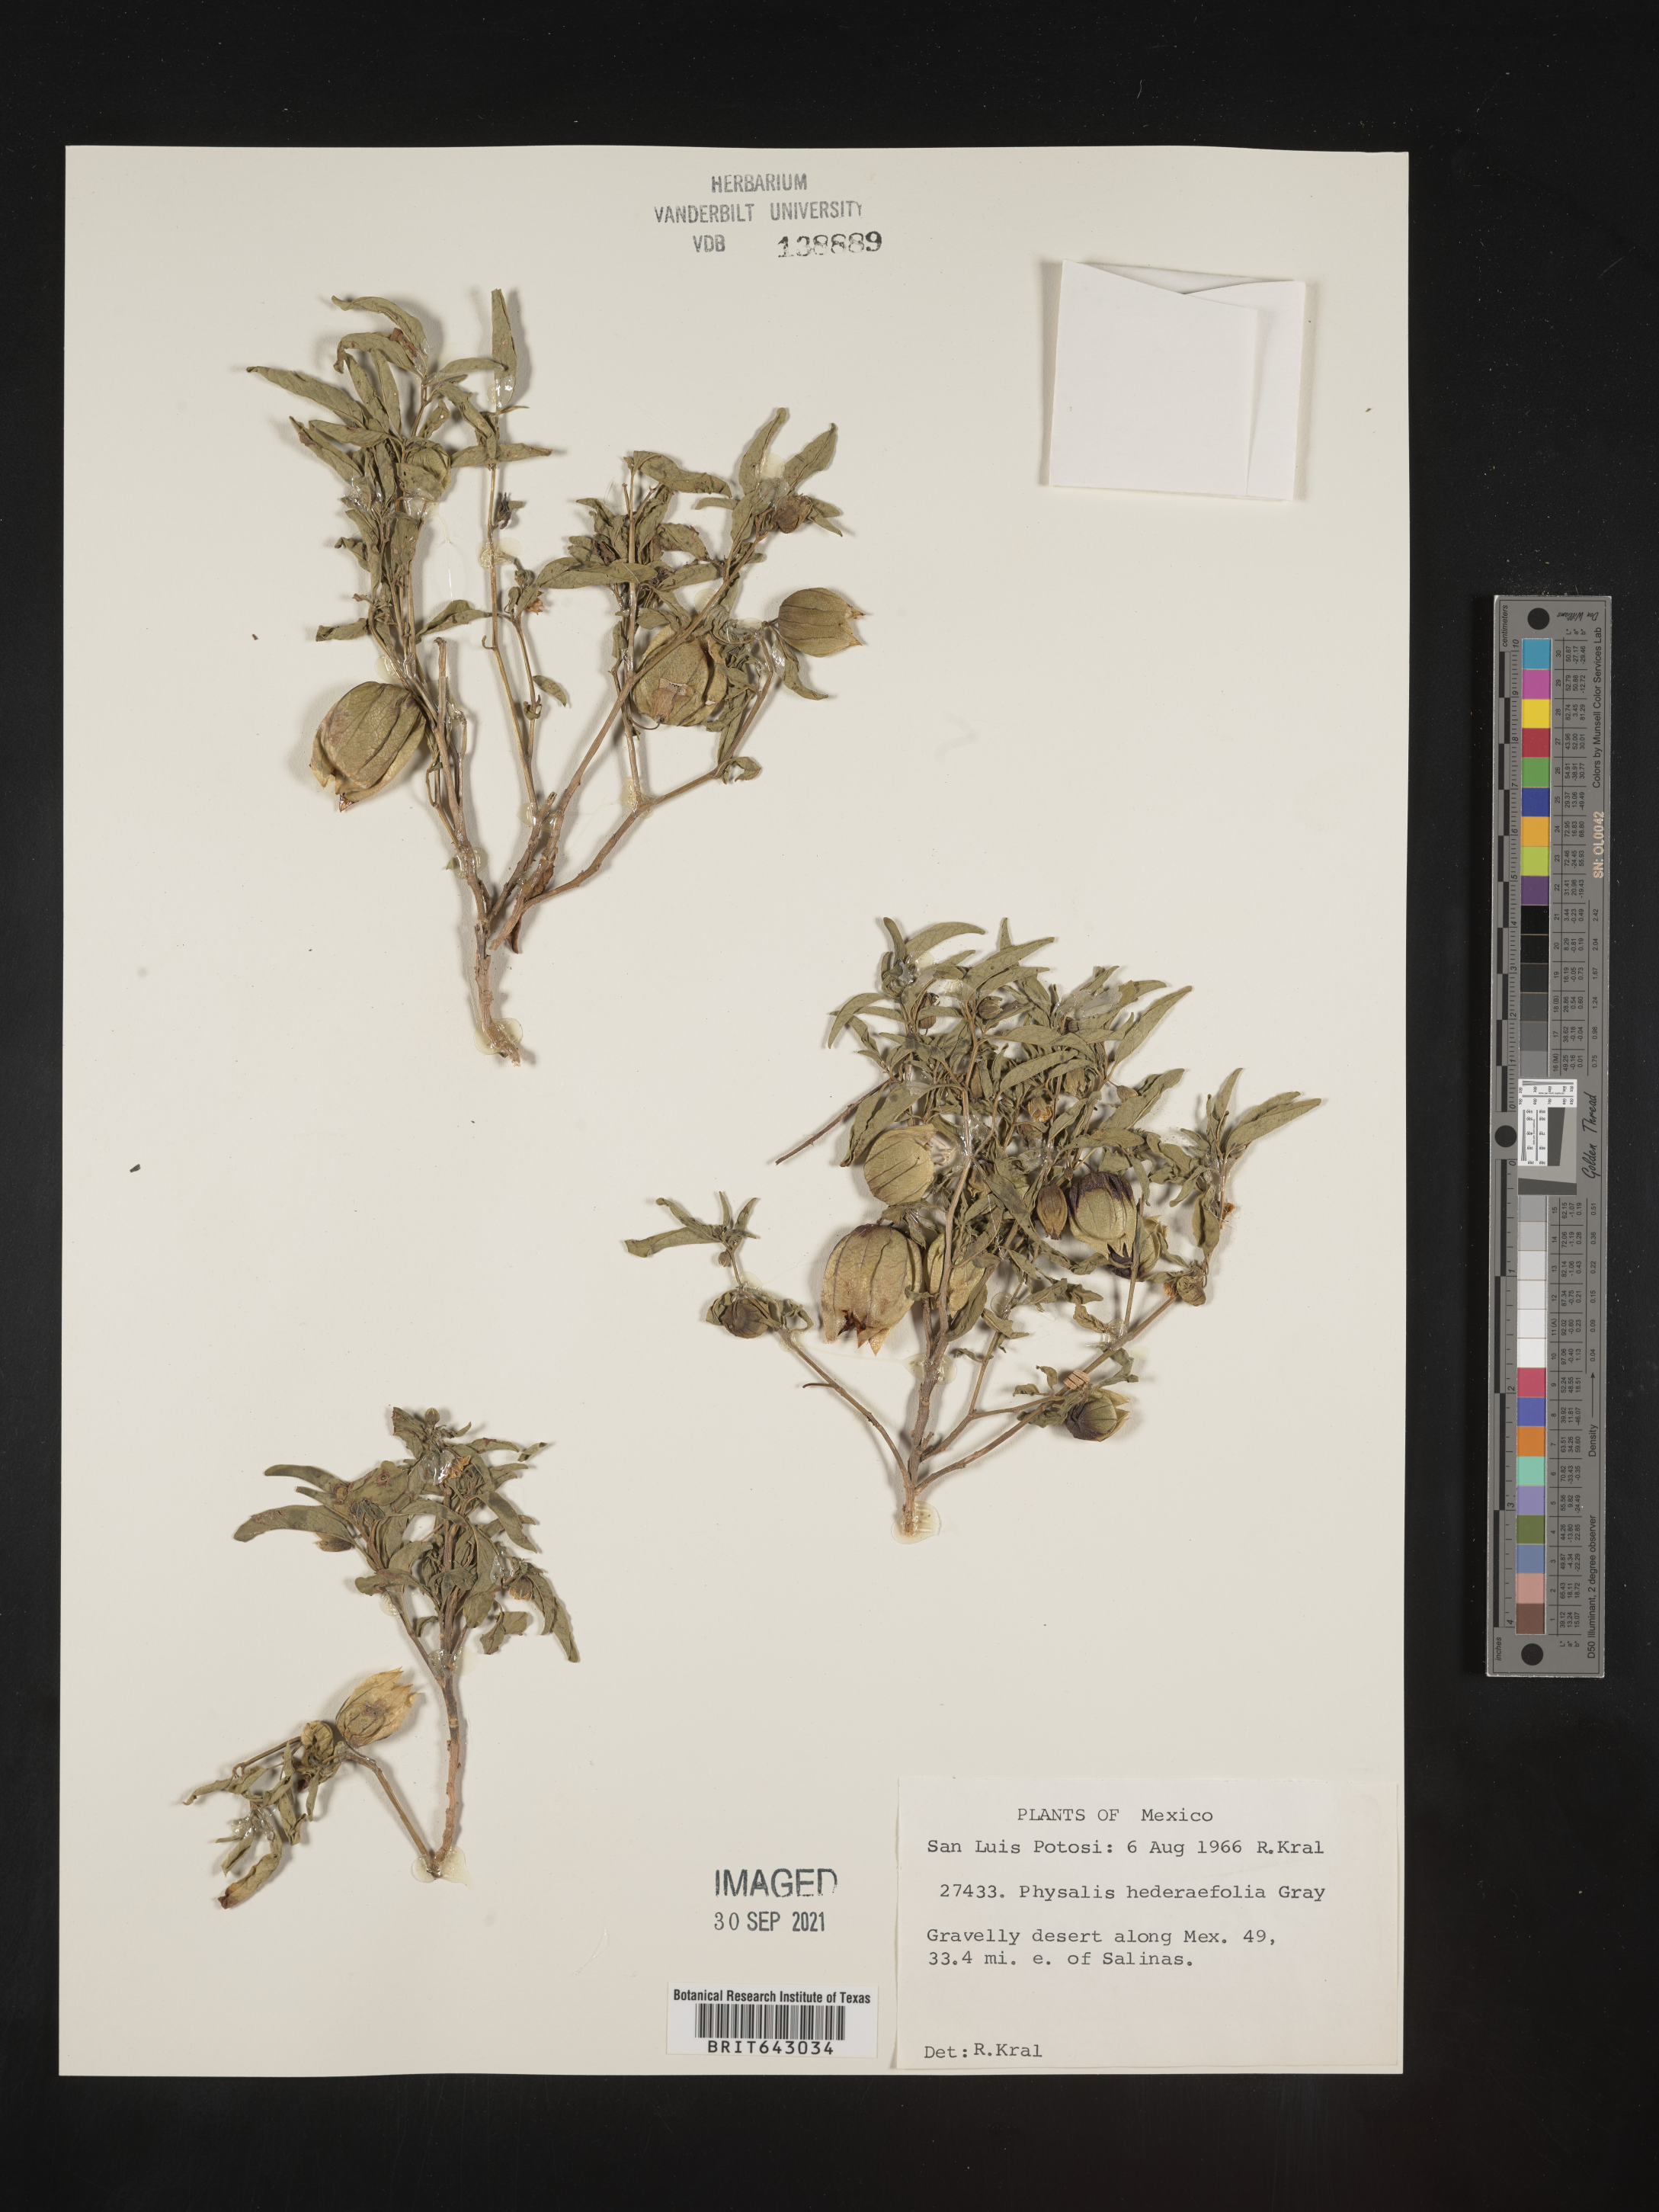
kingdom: Plantae
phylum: Tracheophyta
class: Magnoliopsida
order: Solanales
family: Solanaceae
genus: Physalis
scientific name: Physalis
